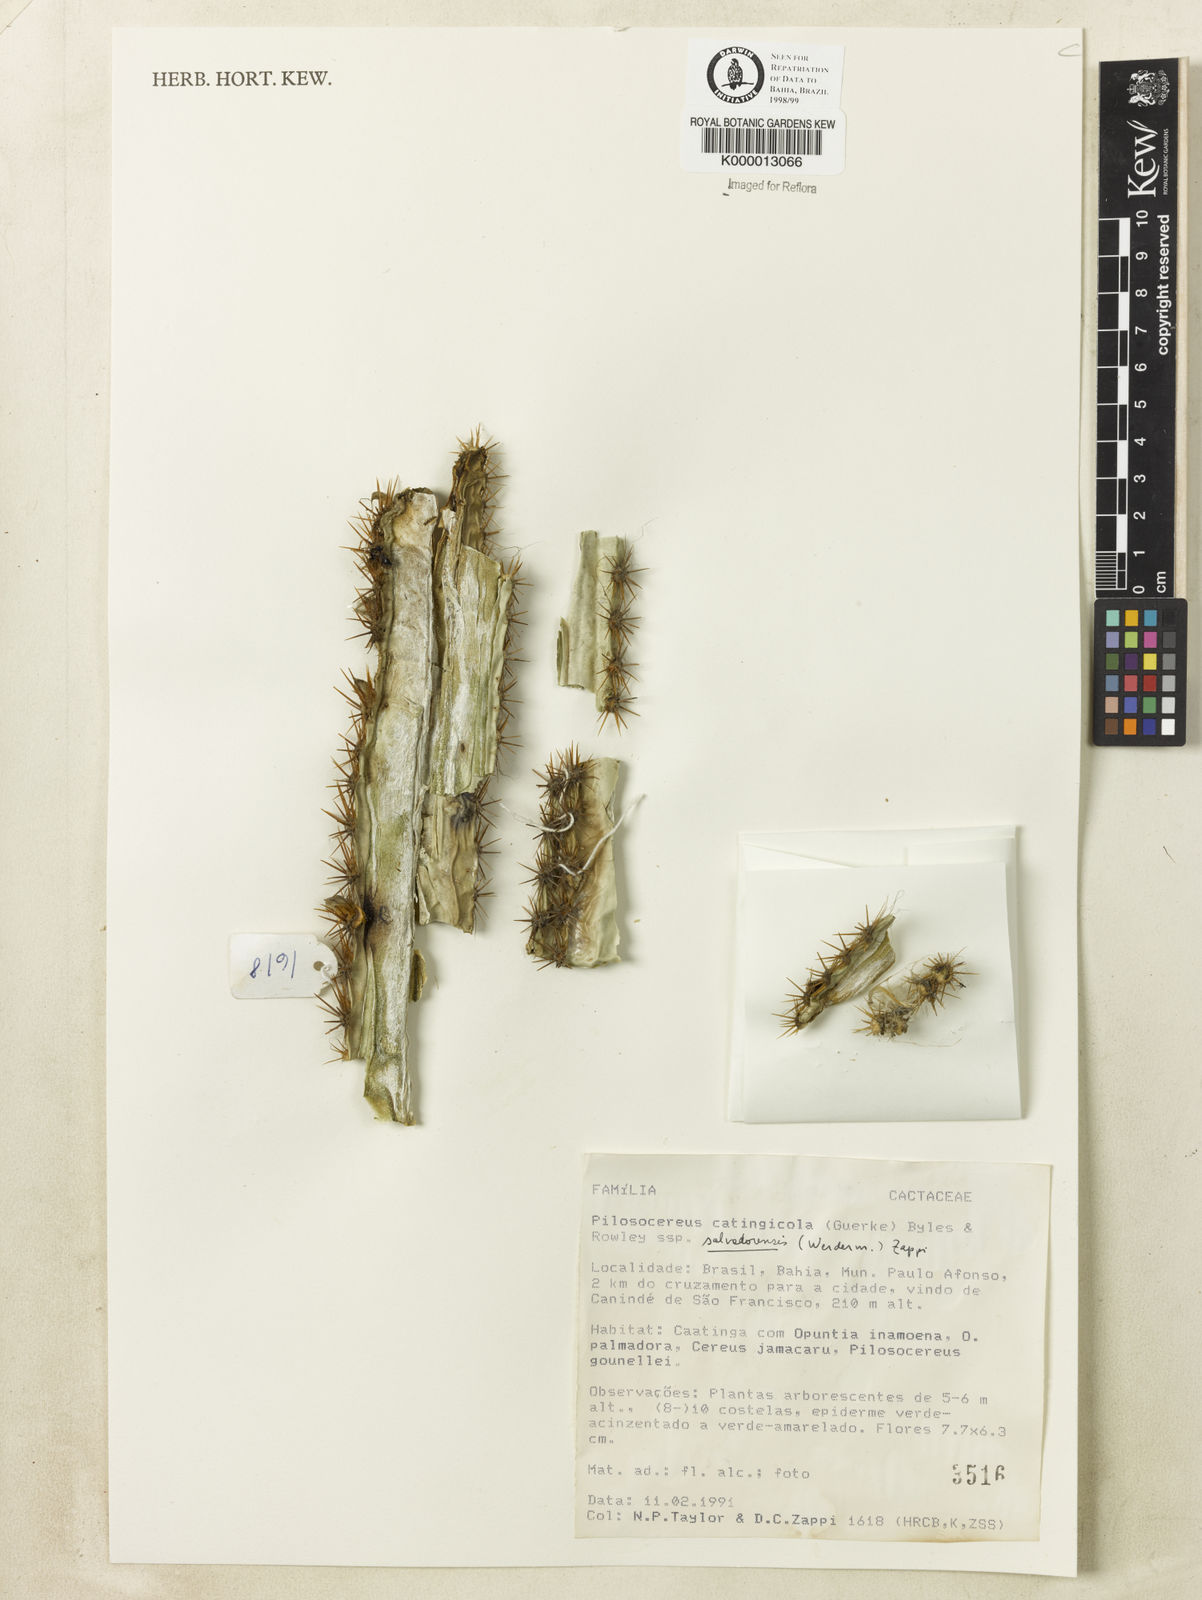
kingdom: Plantae
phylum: Tracheophyta
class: Magnoliopsida
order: Caryophyllales
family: Cactaceae
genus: Pilosocereus
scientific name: Pilosocereus catingicola
